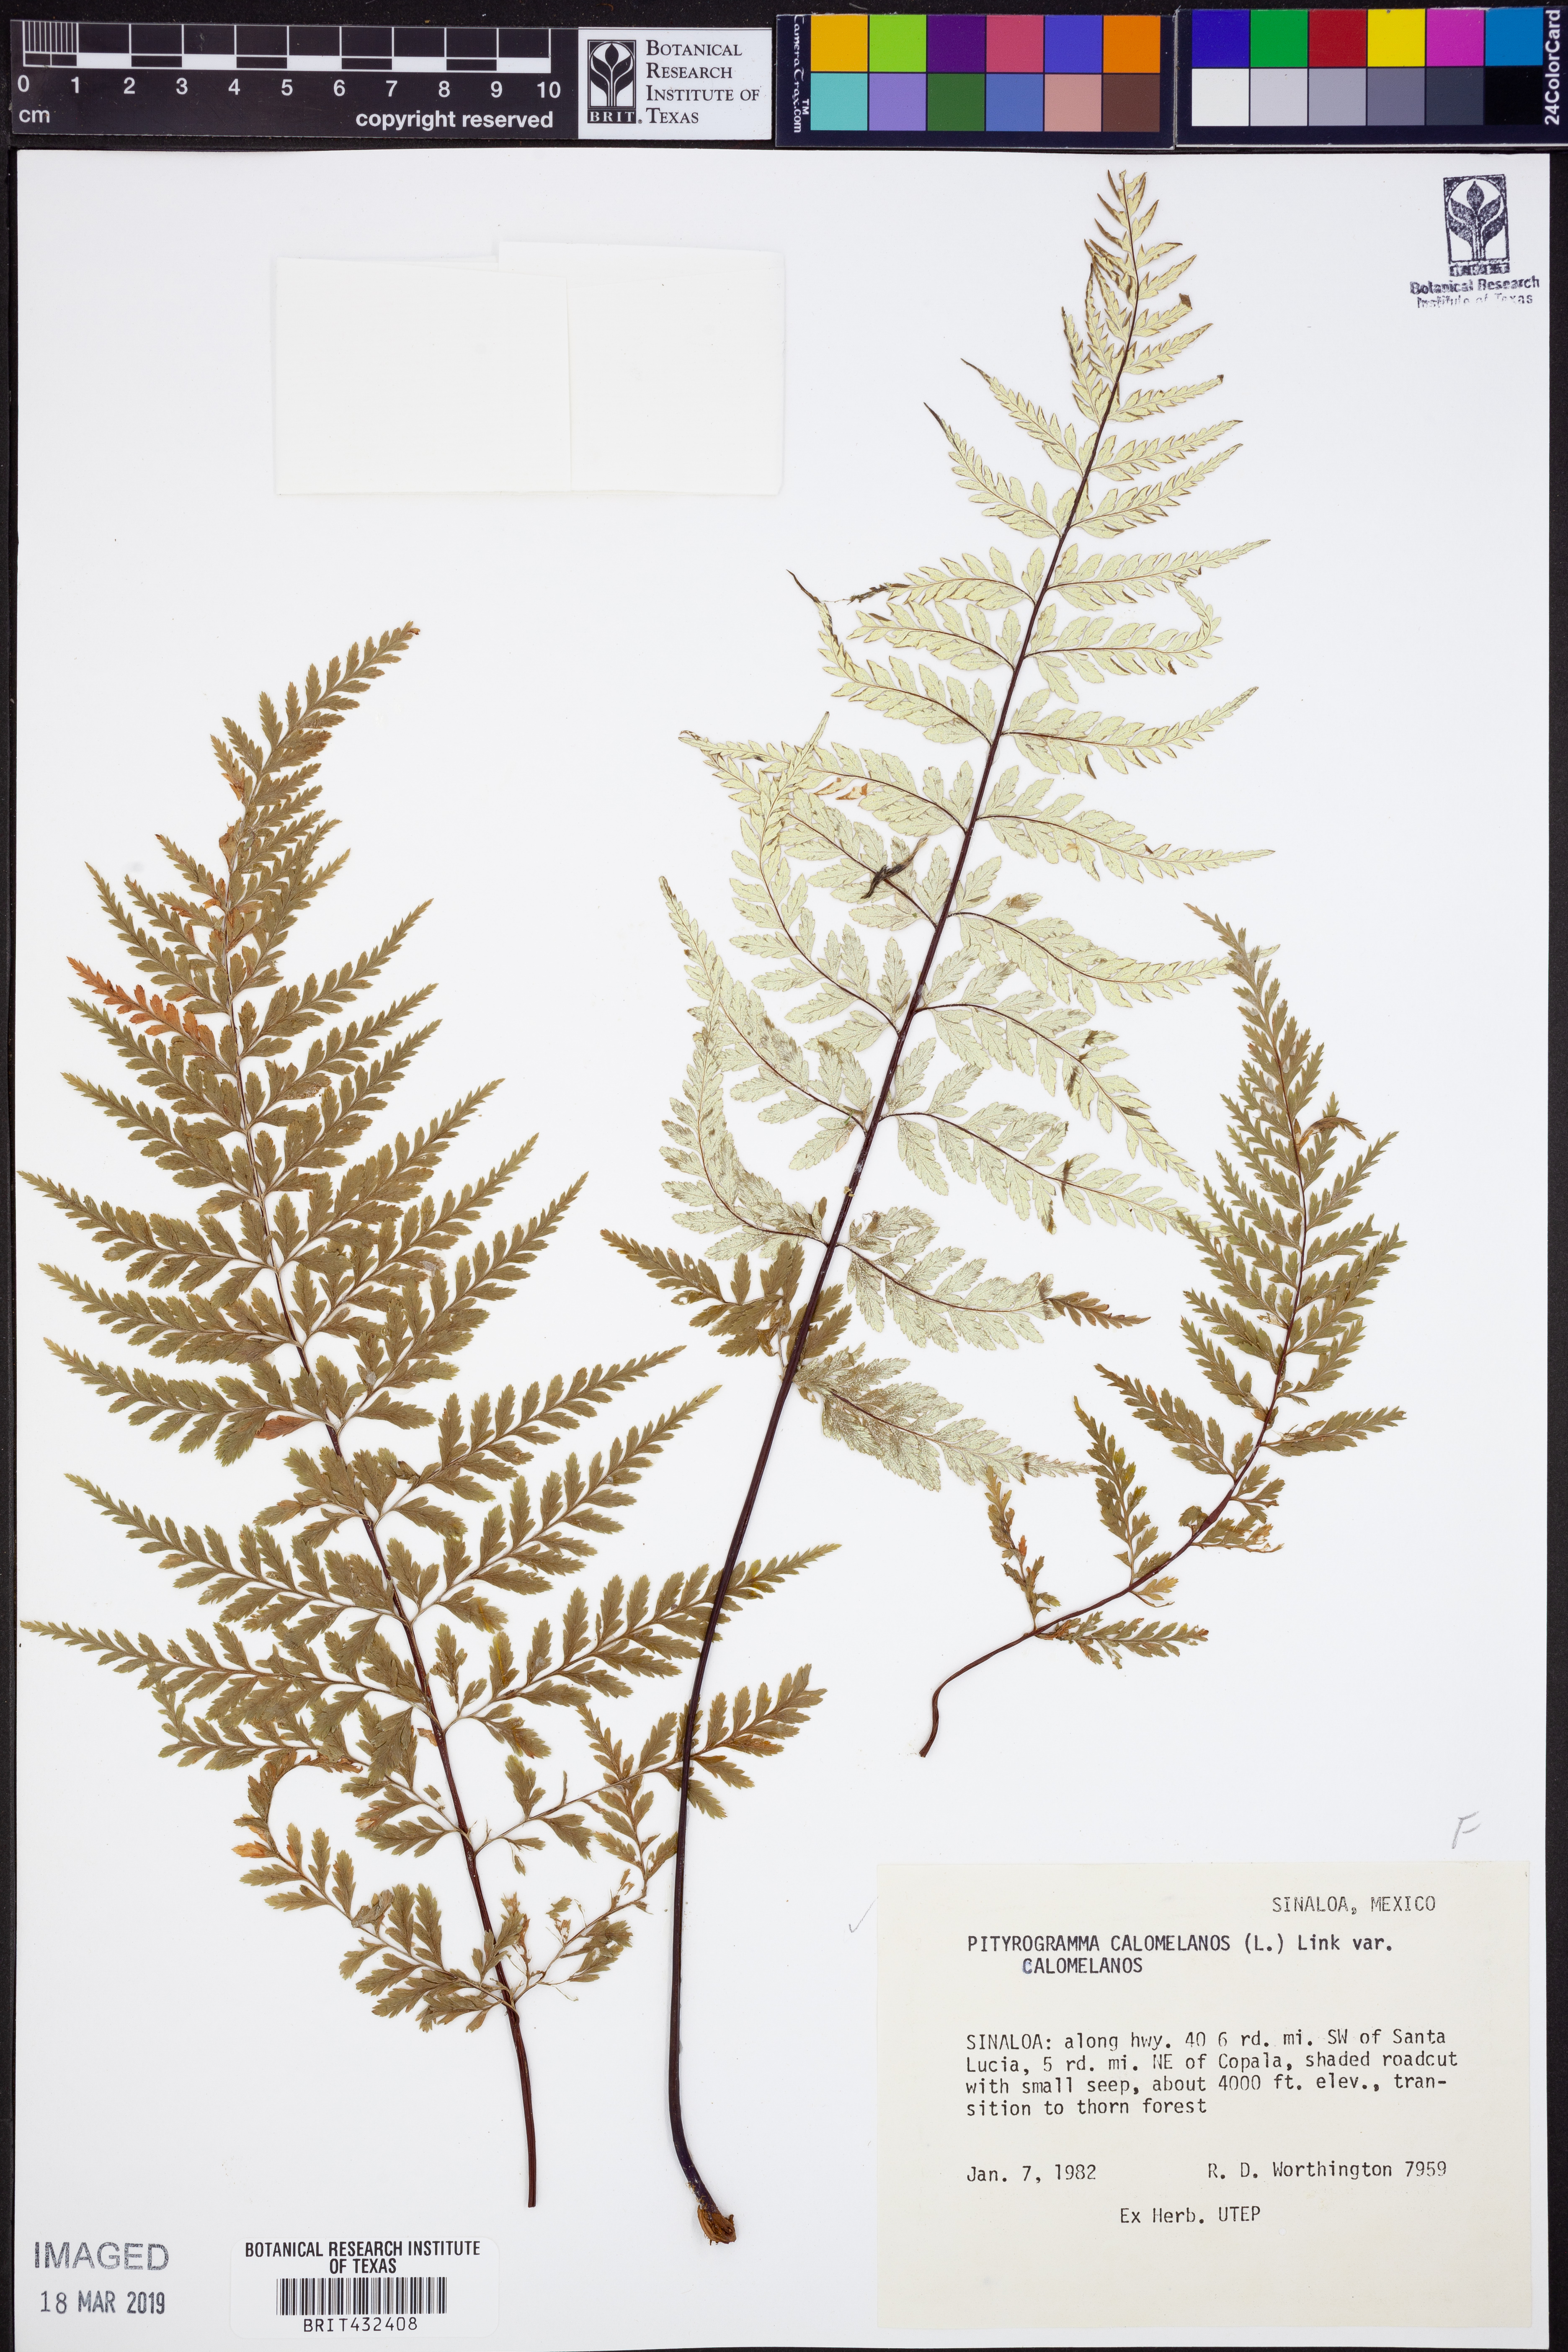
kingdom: Plantae
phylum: Tracheophyta
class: Polypodiopsida
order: Polypodiales
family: Pteridaceae
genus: Pityrogramma
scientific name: Pityrogramma calomelanos
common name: Dixie silverback fern
